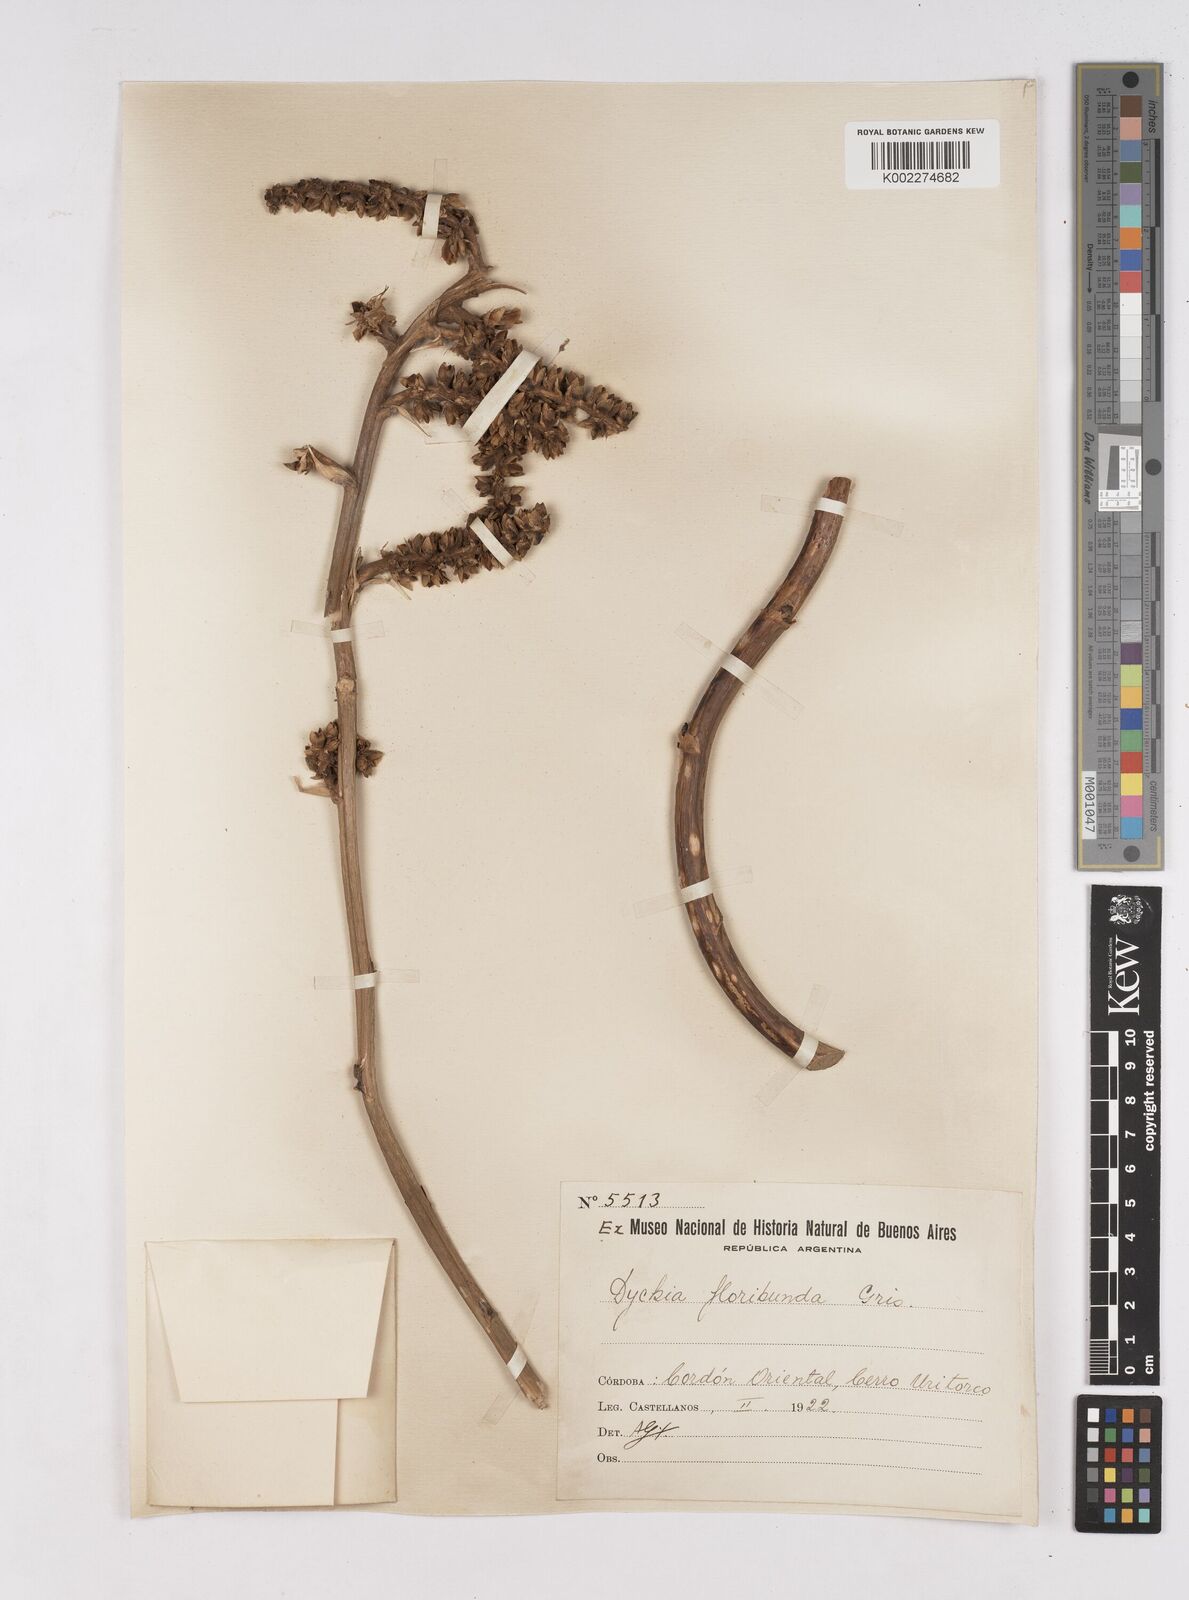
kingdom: Plantae
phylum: Tracheophyta
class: Liliopsida
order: Poales
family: Bromeliaceae
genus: Dyckia
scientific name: Dyckia floribunda
